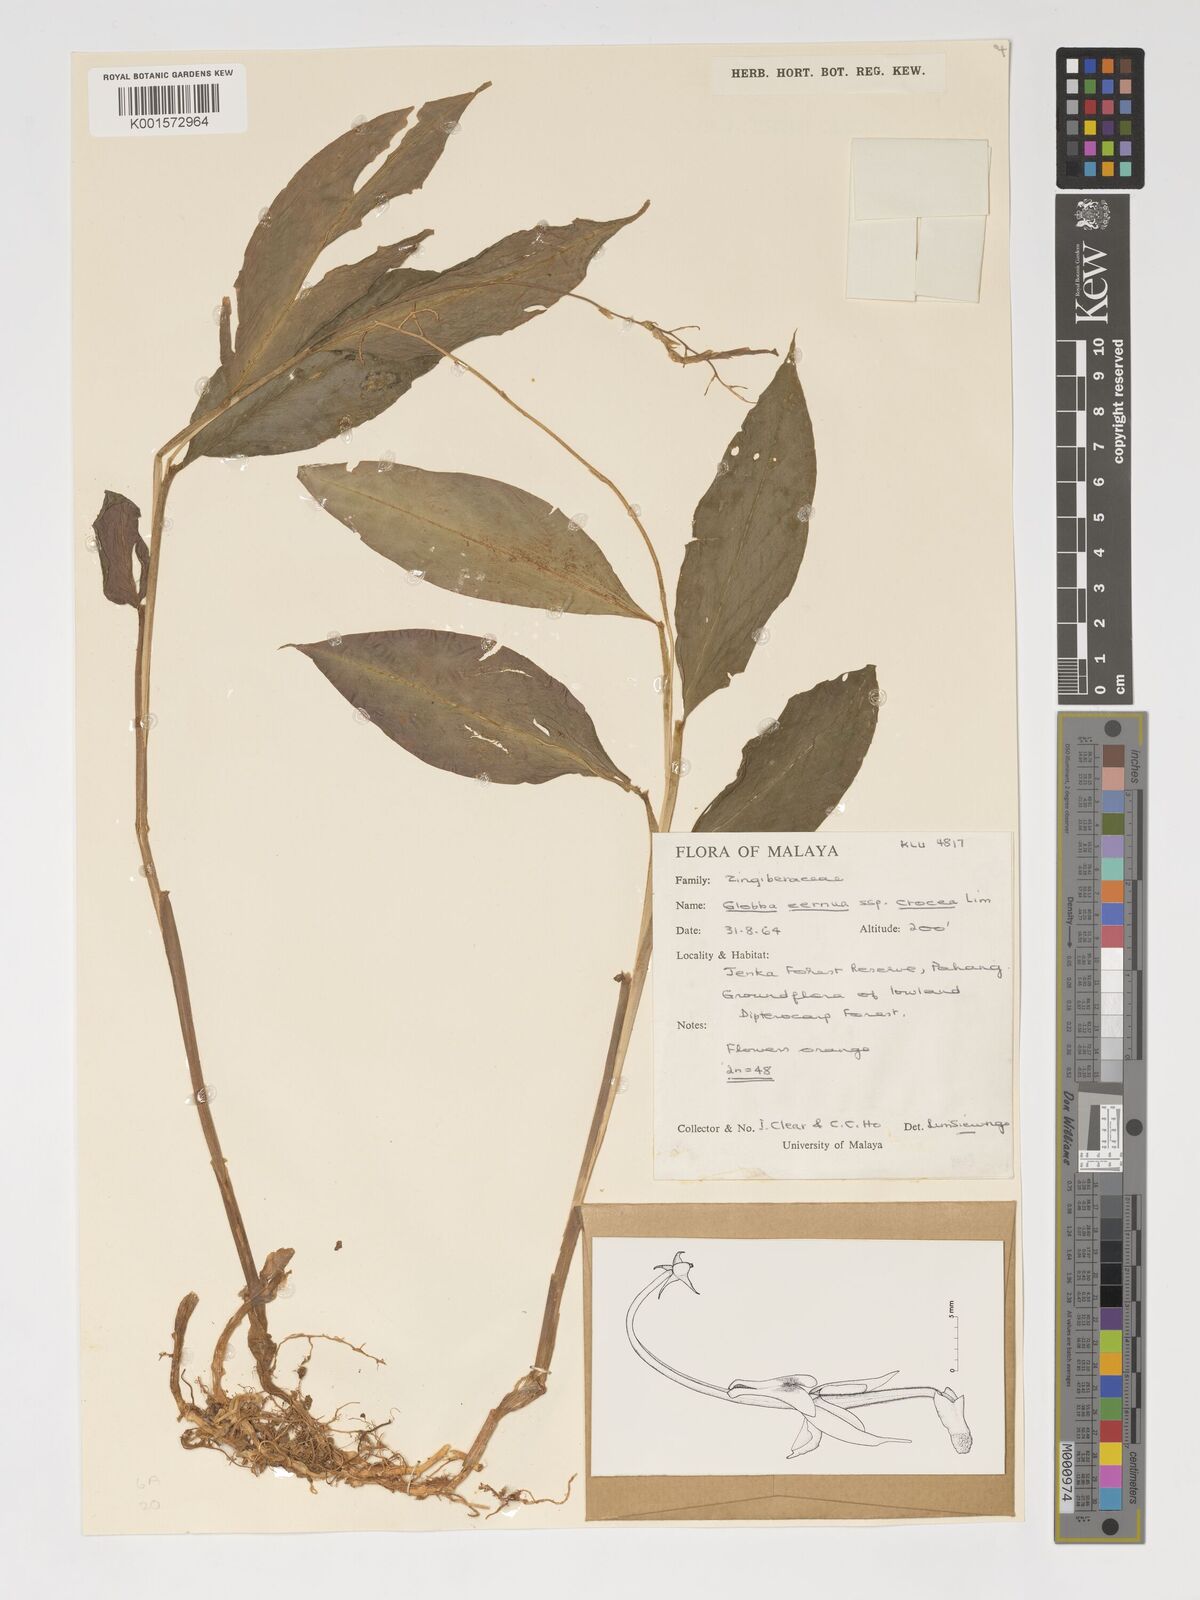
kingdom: Plantae
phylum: Tracheophyta
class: Liliopsida
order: Zingiberales
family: Zingiberaceae
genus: Globba
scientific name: Globba cernua
